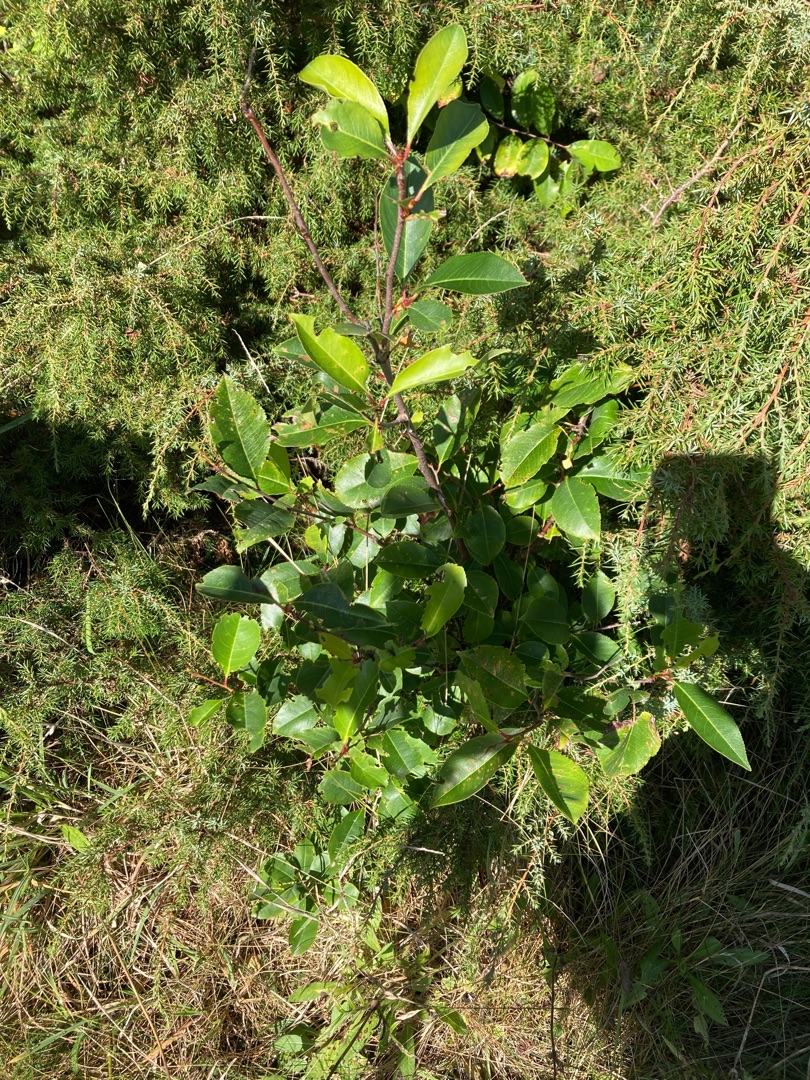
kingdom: Plantae
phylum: Tracheophyta
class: Magnoliopsida
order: Rosales
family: Rosaceae
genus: Prunus
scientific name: Prunus serotina
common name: Glansbladet hæg
